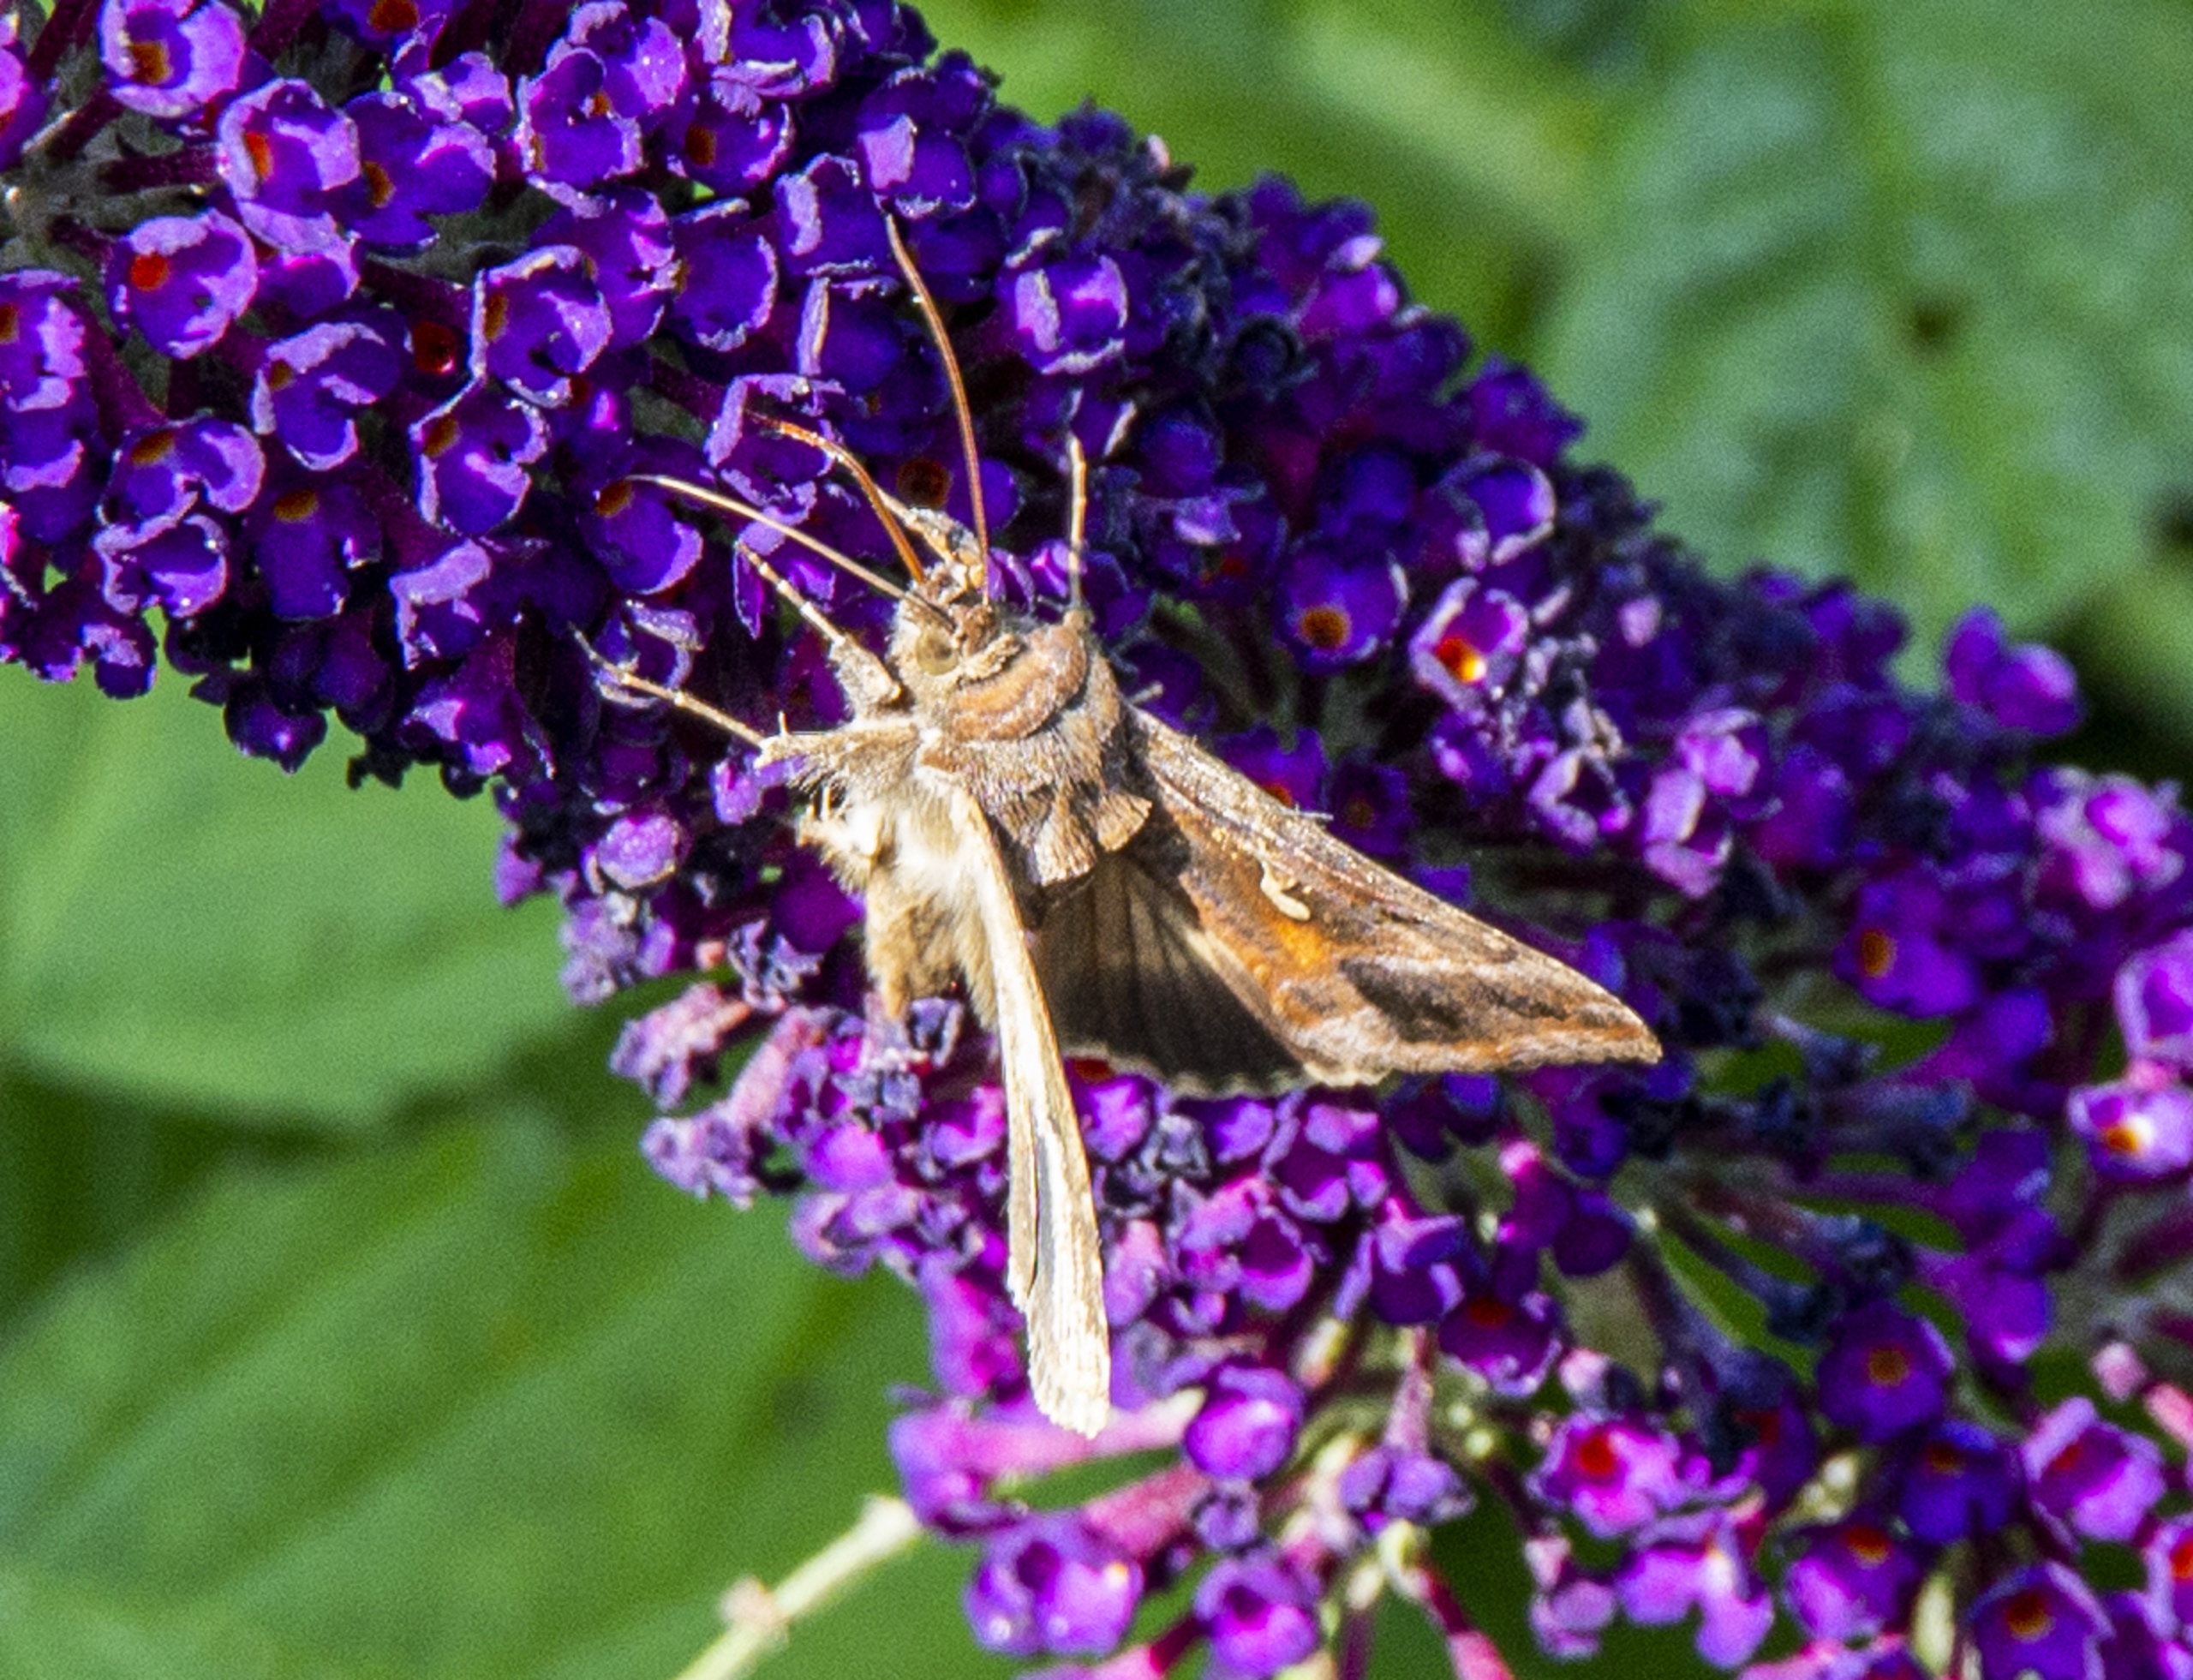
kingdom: Animalia
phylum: Arthropoda
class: Insecta
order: Lepidoptera
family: Noctuidae
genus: Autographa
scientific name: Autographa gamma
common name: Gammaugle
